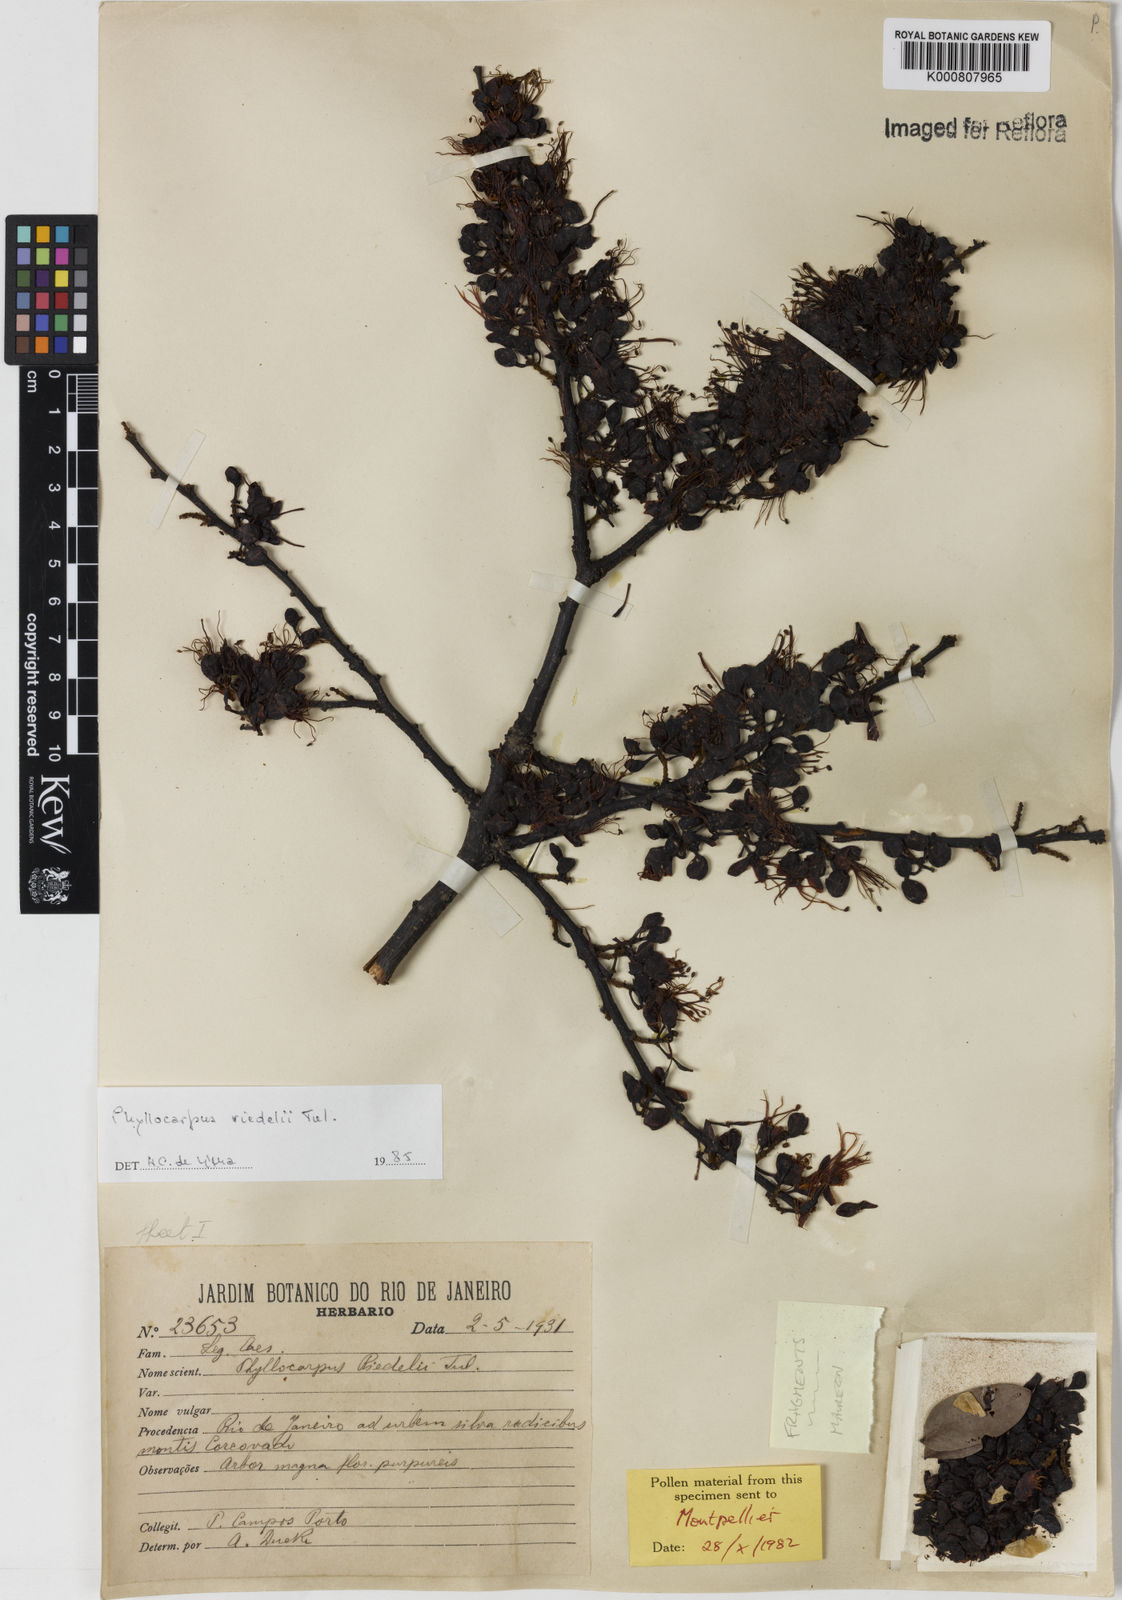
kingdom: Plantae
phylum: Tracheophyta
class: Magnoliopsida
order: Fabales
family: Fabaceae
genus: Barnebydendron
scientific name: Barnebydendron riedelii
